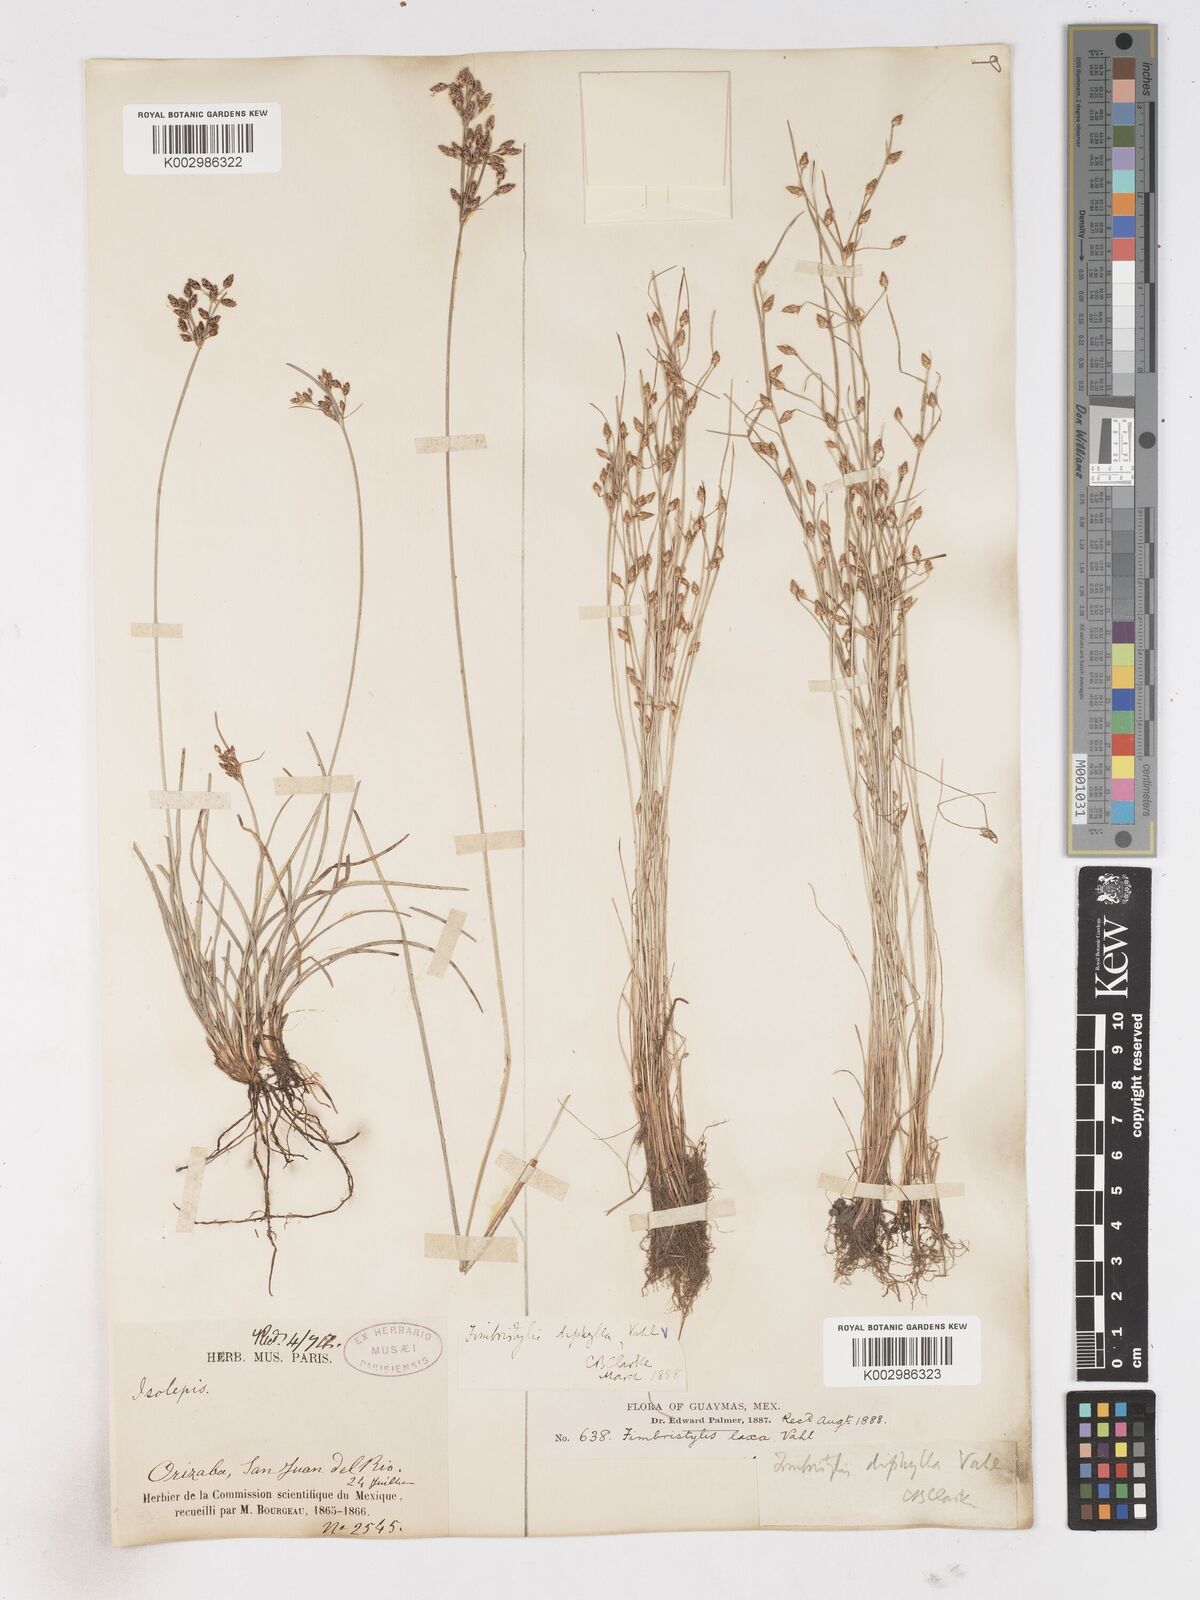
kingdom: Plantae
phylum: Tracheophyta
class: Liliopsida
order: Poales
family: Cyperaceae
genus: Fimbristylis
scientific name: Fimbristylis dichotoma
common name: Forked fimbry
